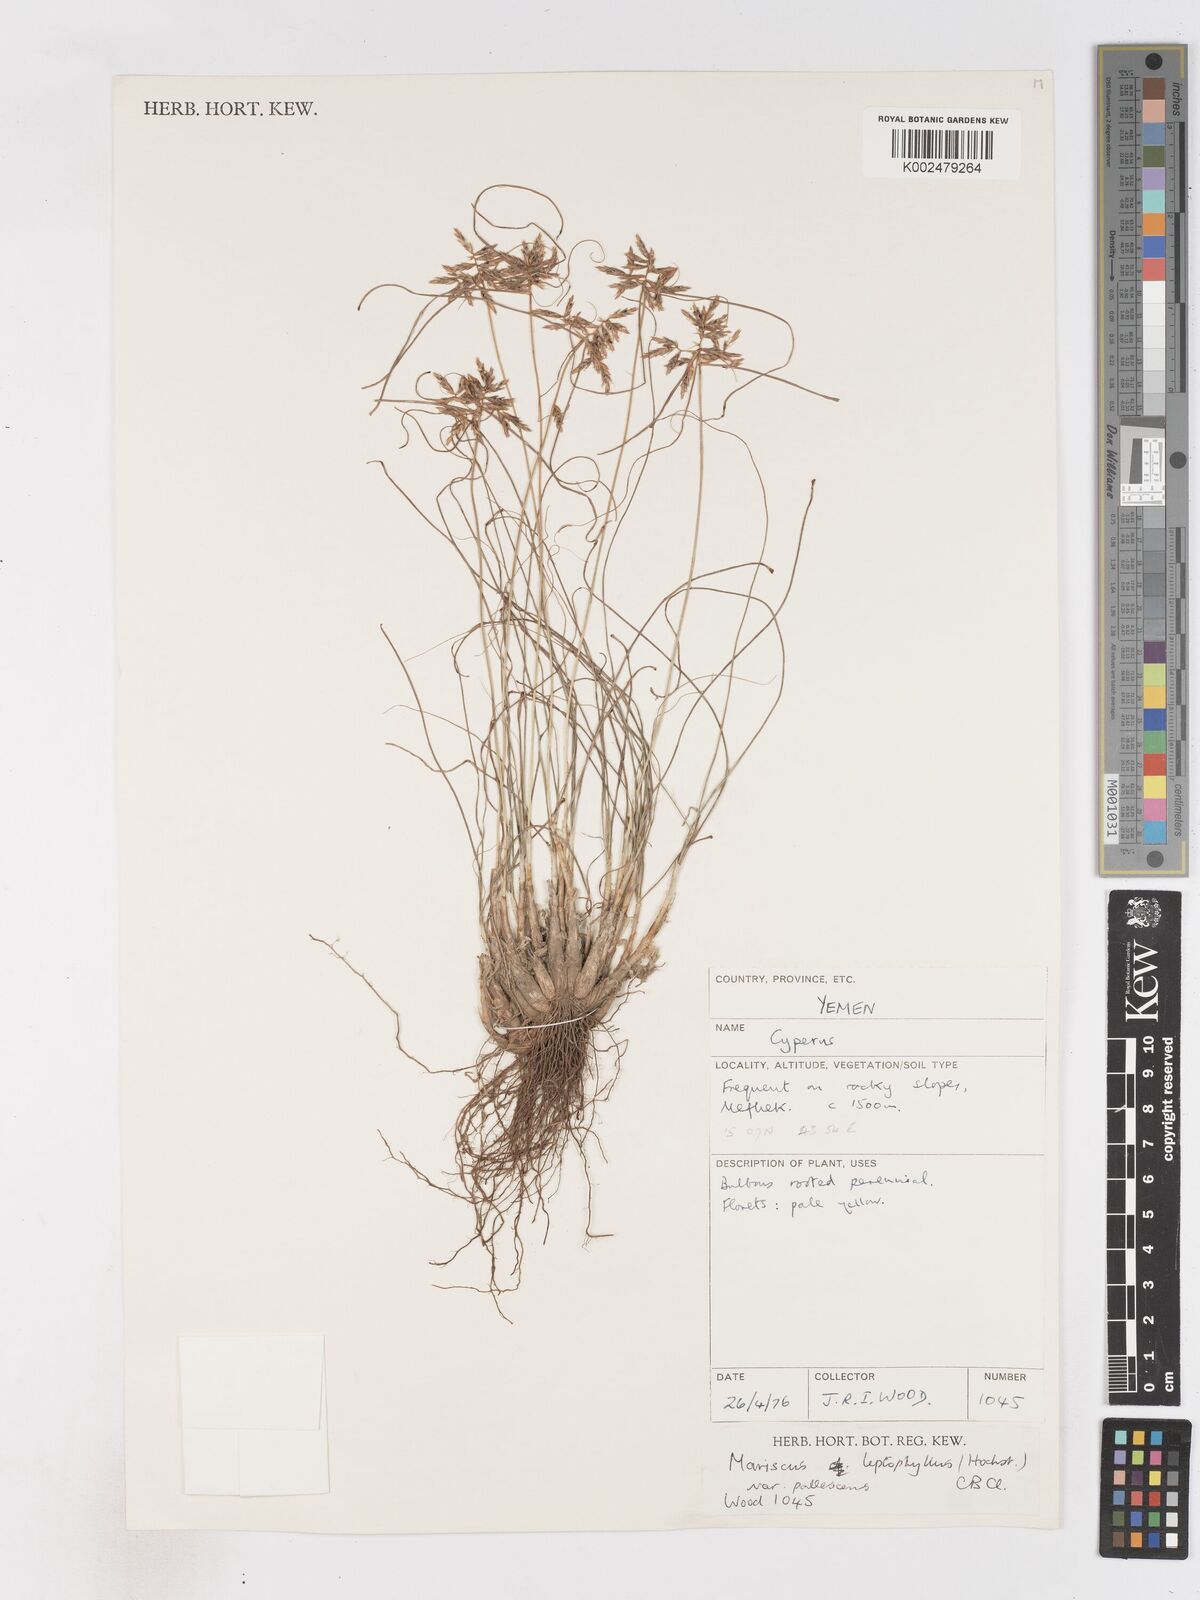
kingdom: Plantae
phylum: Tracheophyta
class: Liliopsida
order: Poales
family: Cyperaceae
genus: Cyperus
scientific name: Cyperus cruentus
